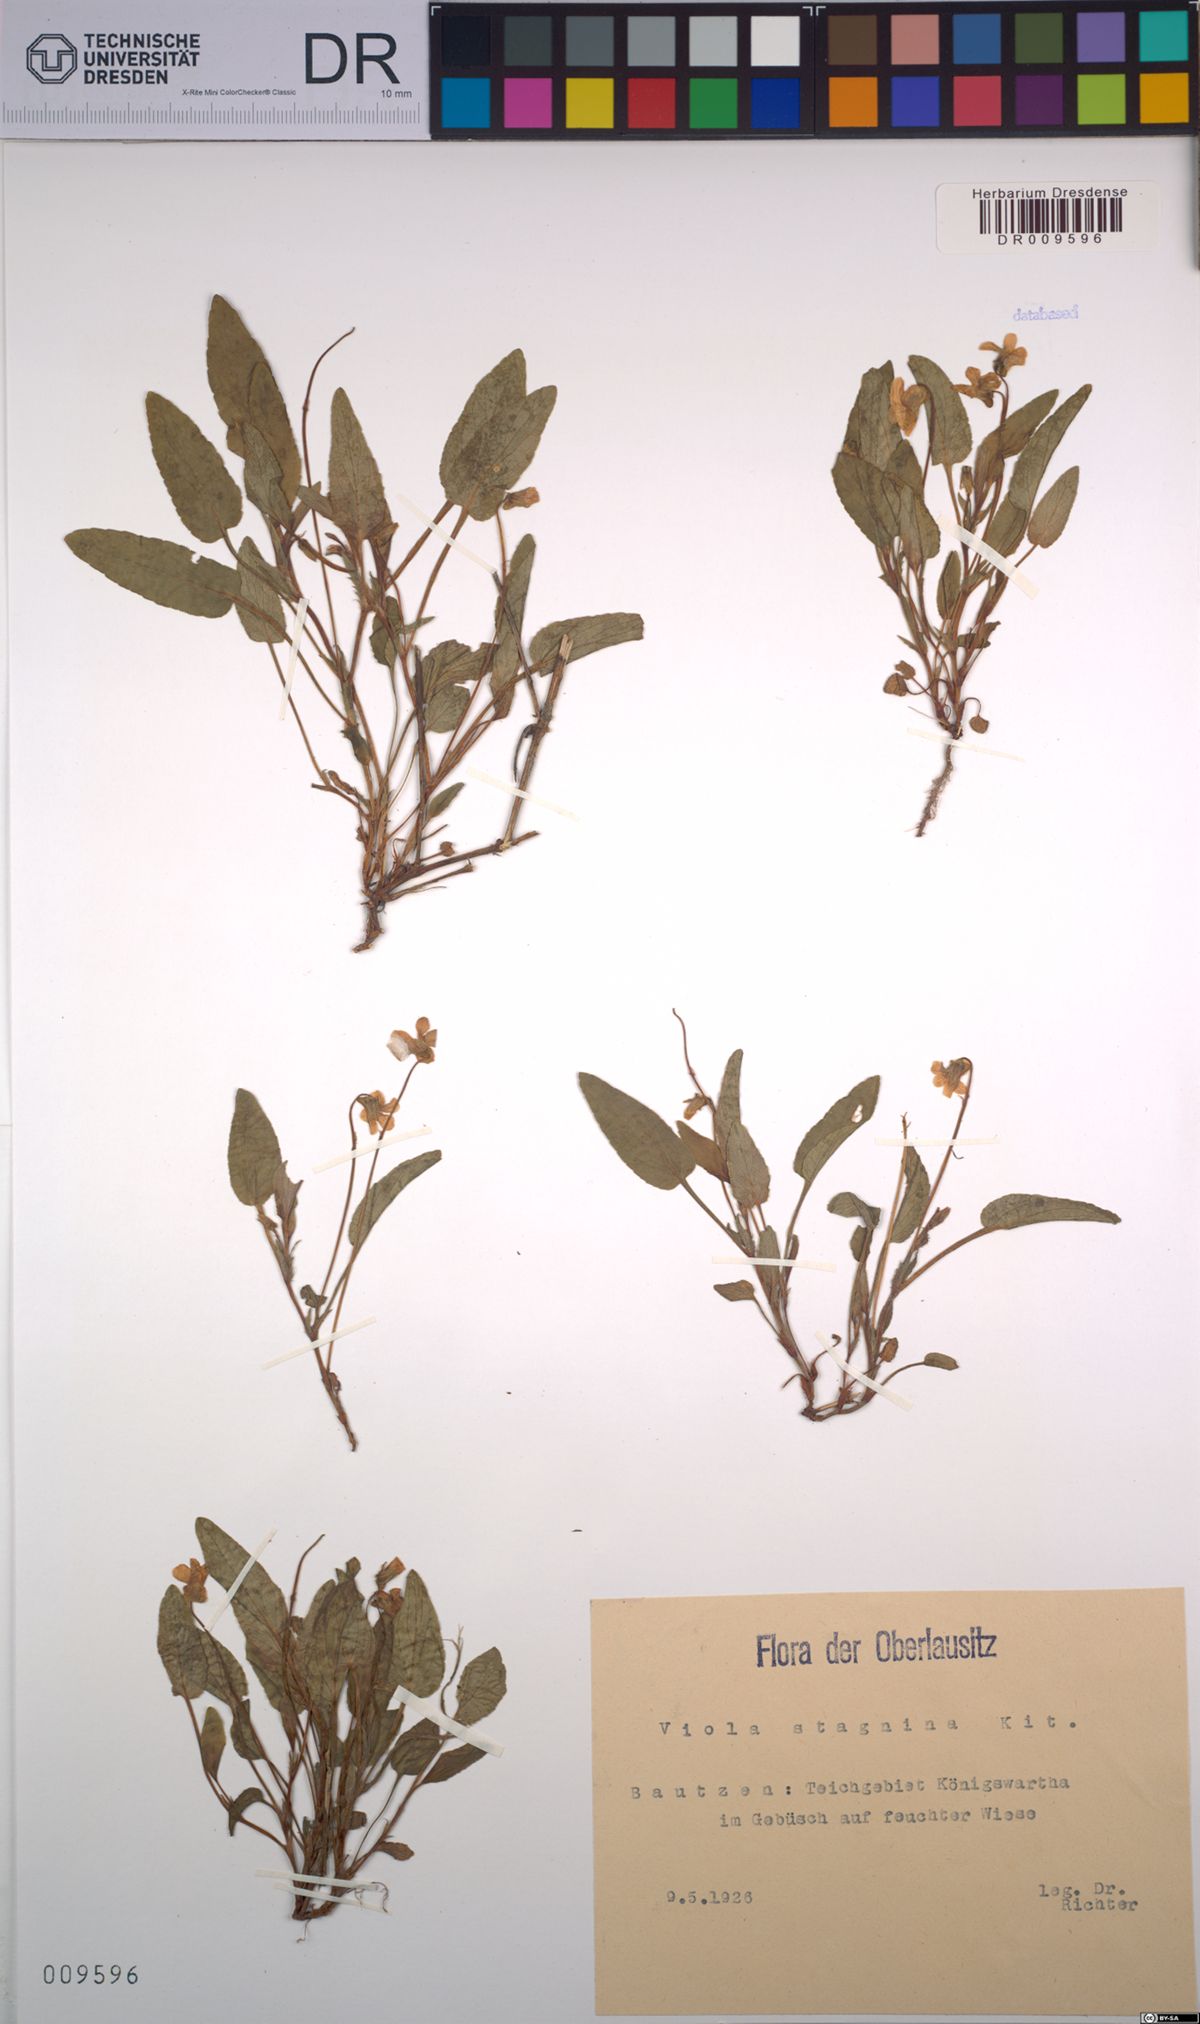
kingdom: Plantae
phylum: Tracheophyta
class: Magnoliopsida
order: Malpighiales
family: Violaceae
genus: Viola
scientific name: Viola stagnina
